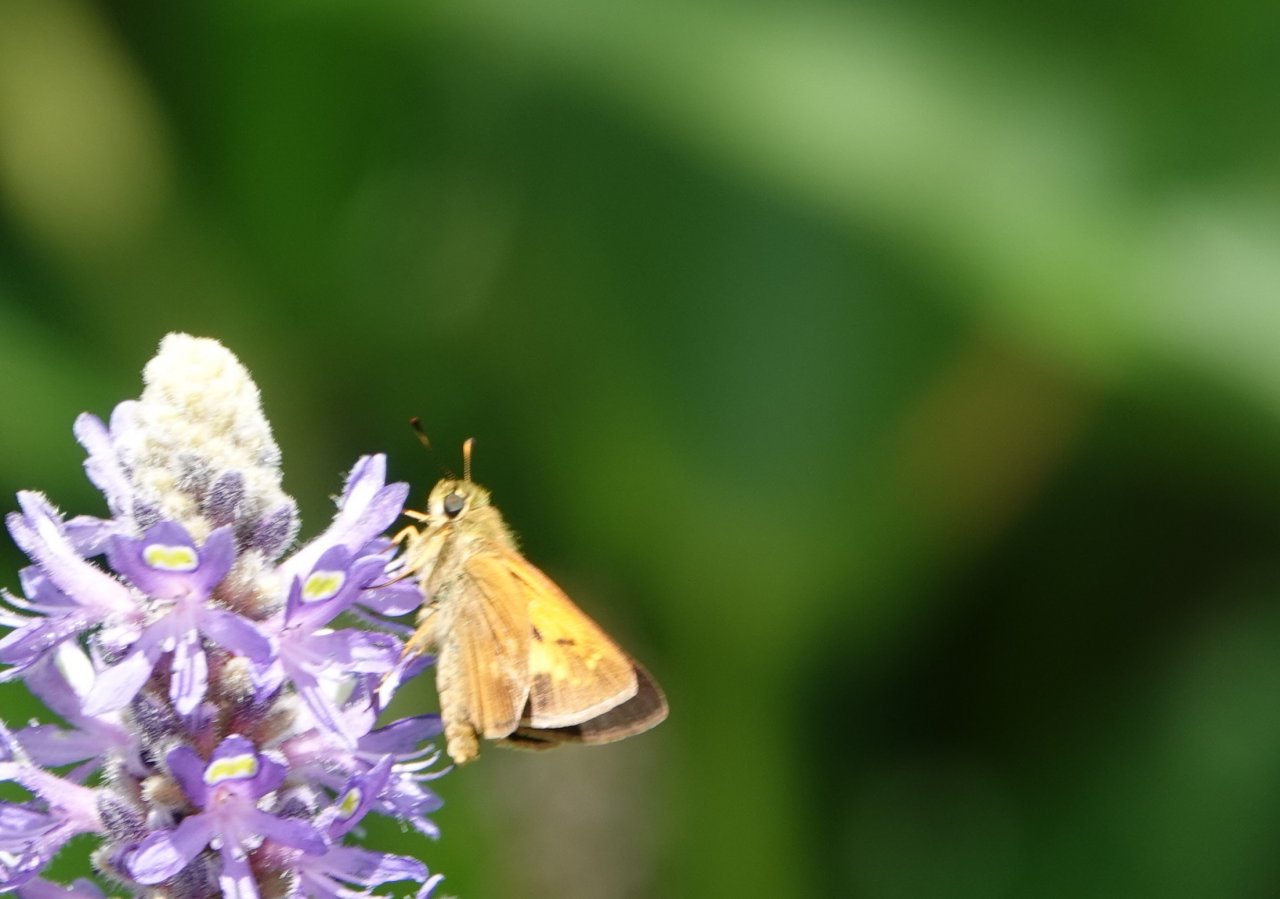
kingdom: Animalia
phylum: Arthropoda
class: Insecta
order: Lepidoptera
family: Hesperiidae
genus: Poanes
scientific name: Poanes yehl
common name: Yehl Skipper
